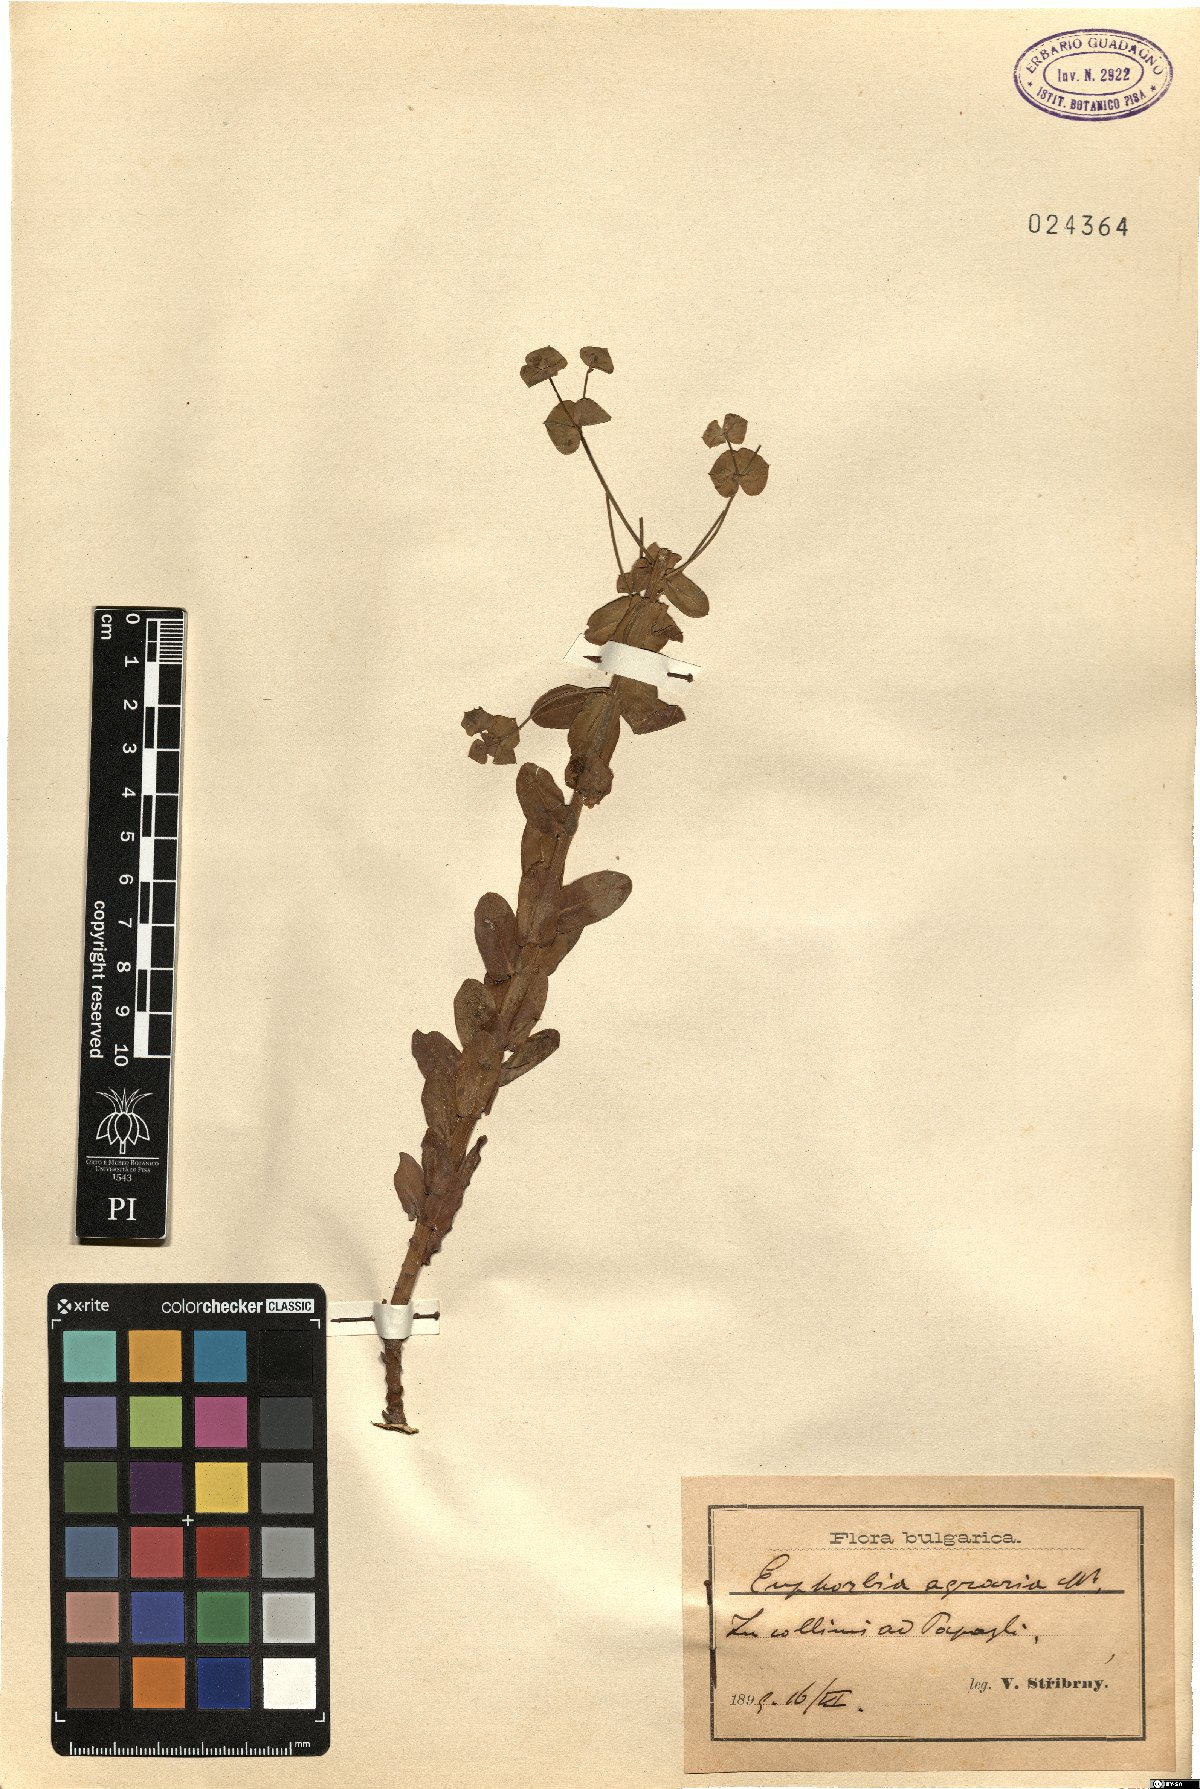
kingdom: Plantae
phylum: Tracheophyta
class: Magnoliopsida
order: Malpighiales
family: Euphorbiaceae
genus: Euphorbia
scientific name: Euphorbia agraria
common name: Urban spurge
